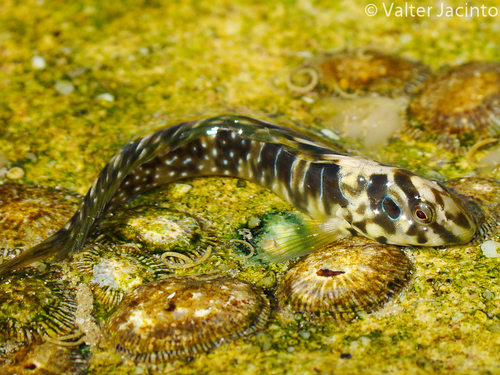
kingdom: Animalia
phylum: Chordata
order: Perciformes
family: Blenniidae
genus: Salaria
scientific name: Salaria pavo
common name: Peacock blenny
